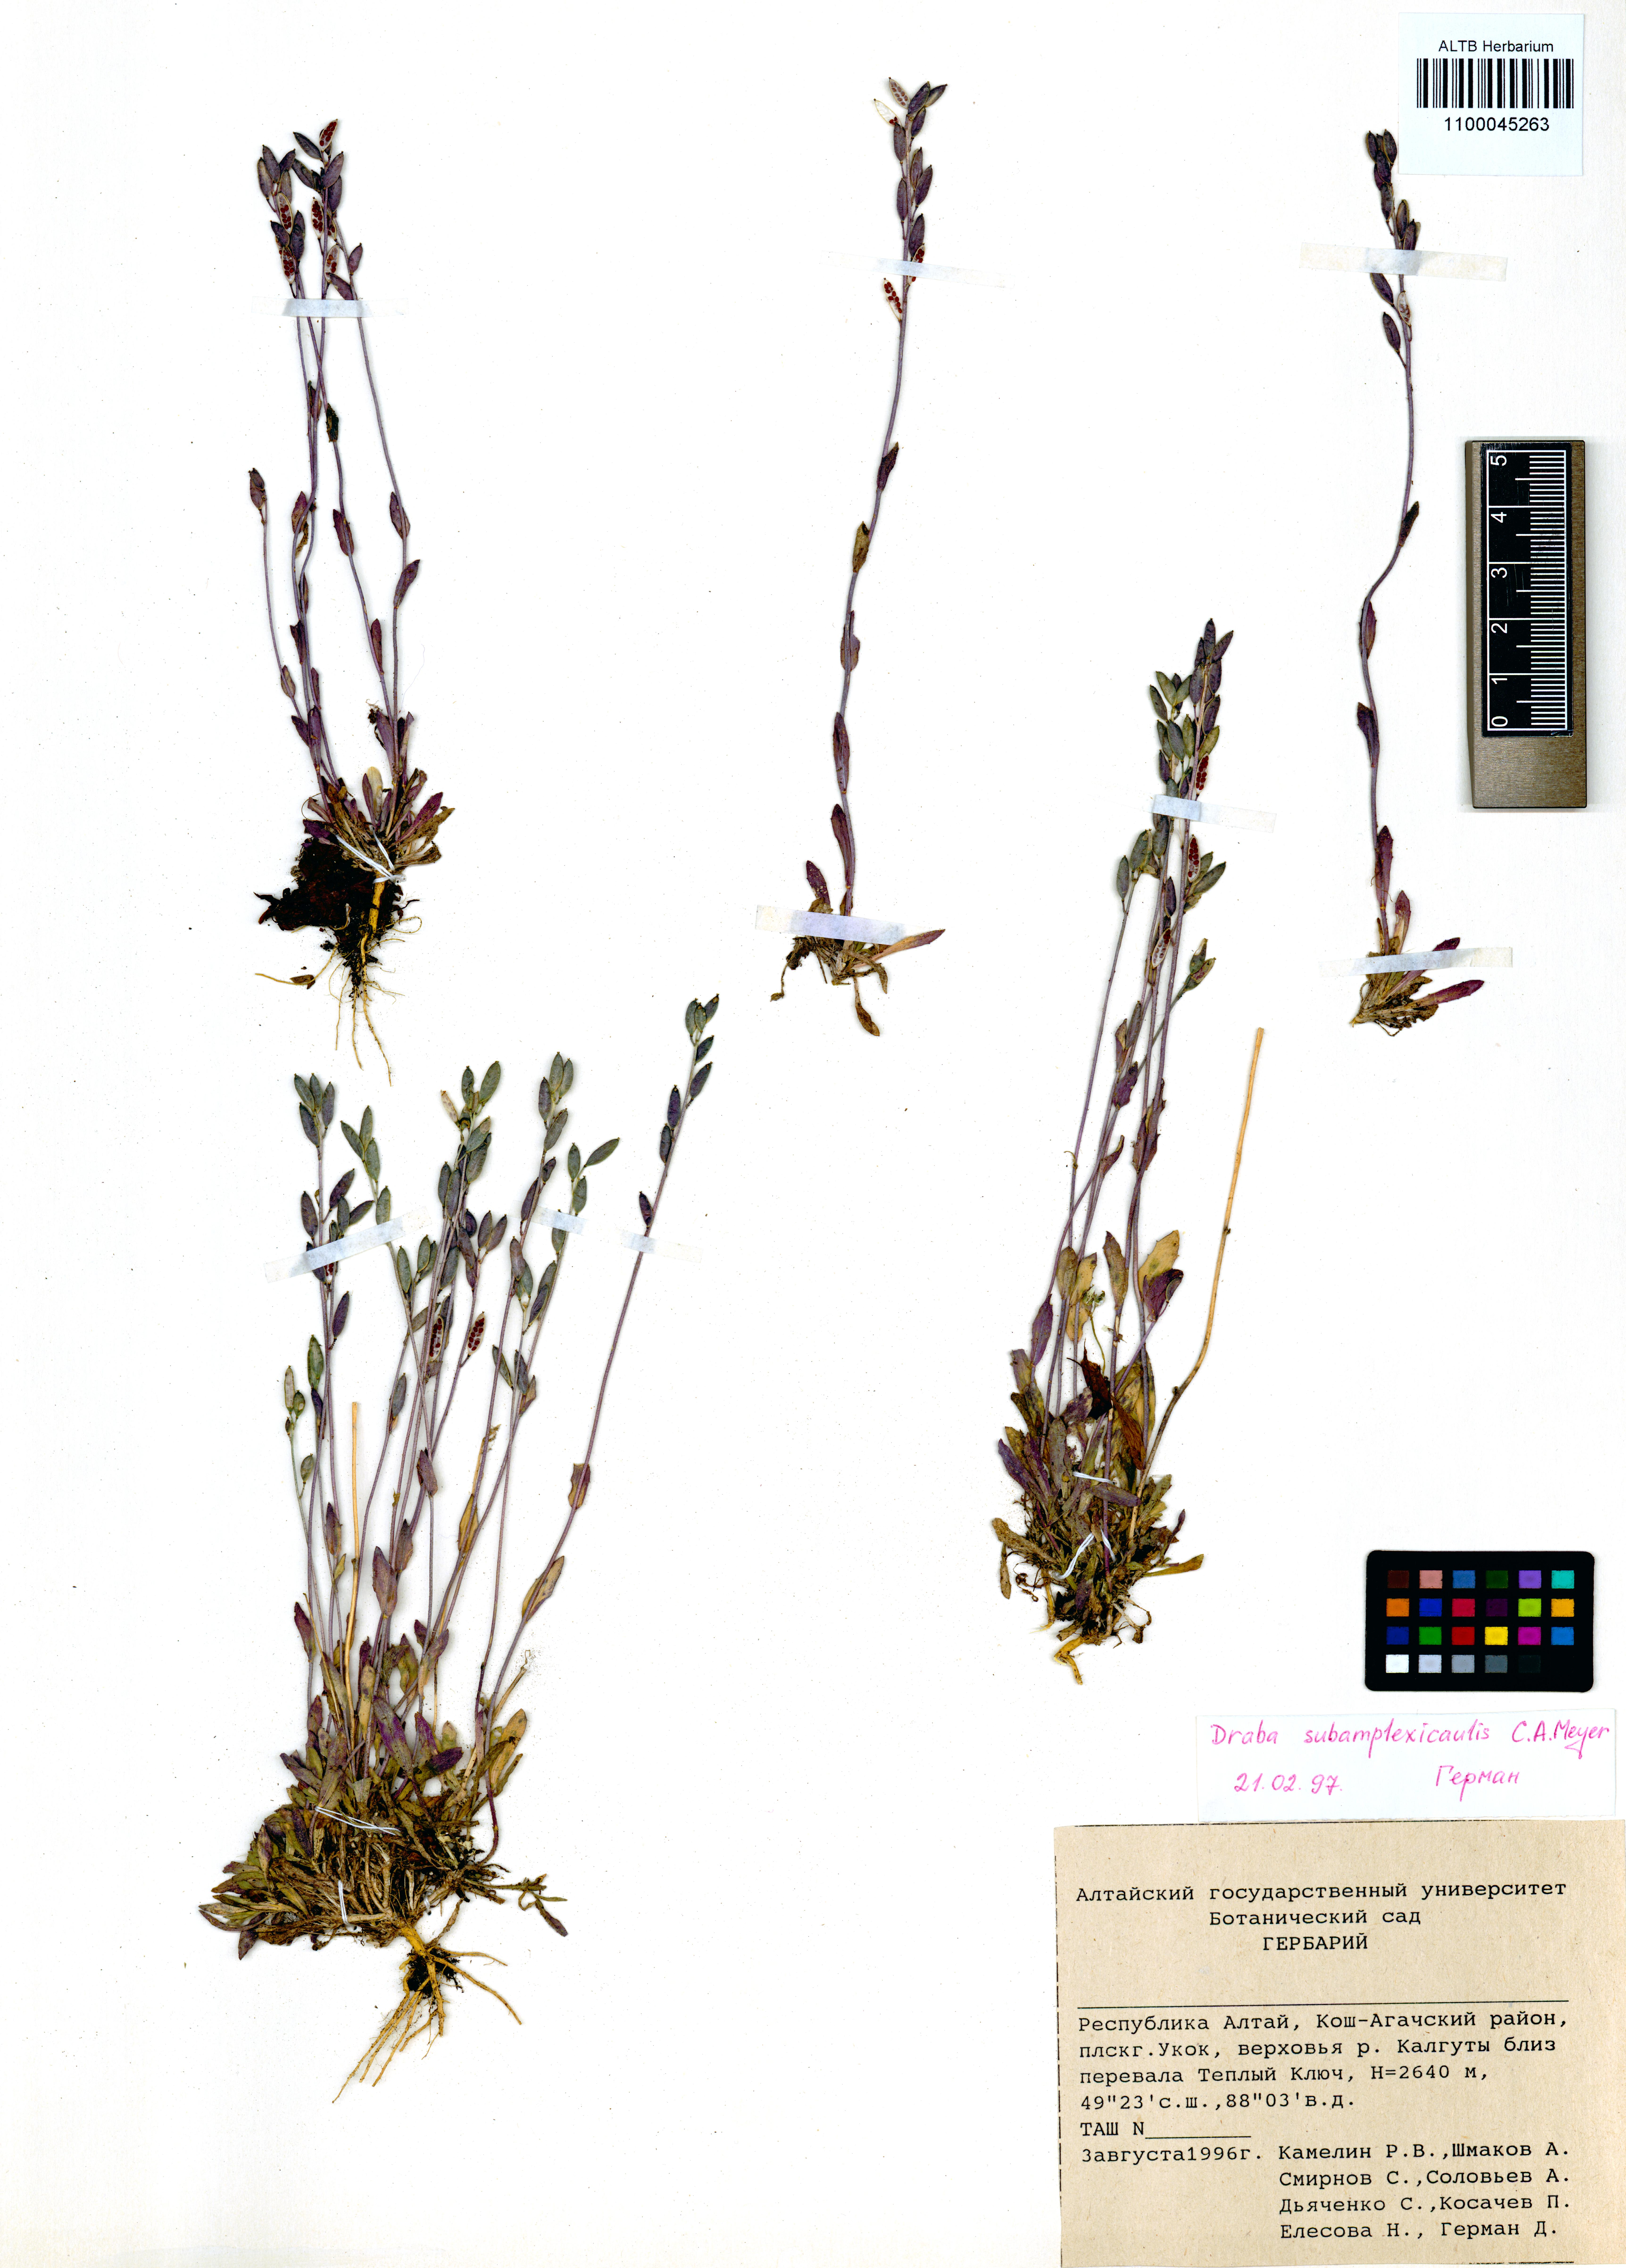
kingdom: Plantae
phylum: Tracheophyta
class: Magnoliopsida
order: Brassicales
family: Brassicaceae
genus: Draba
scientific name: Draba subamplexicaulis
